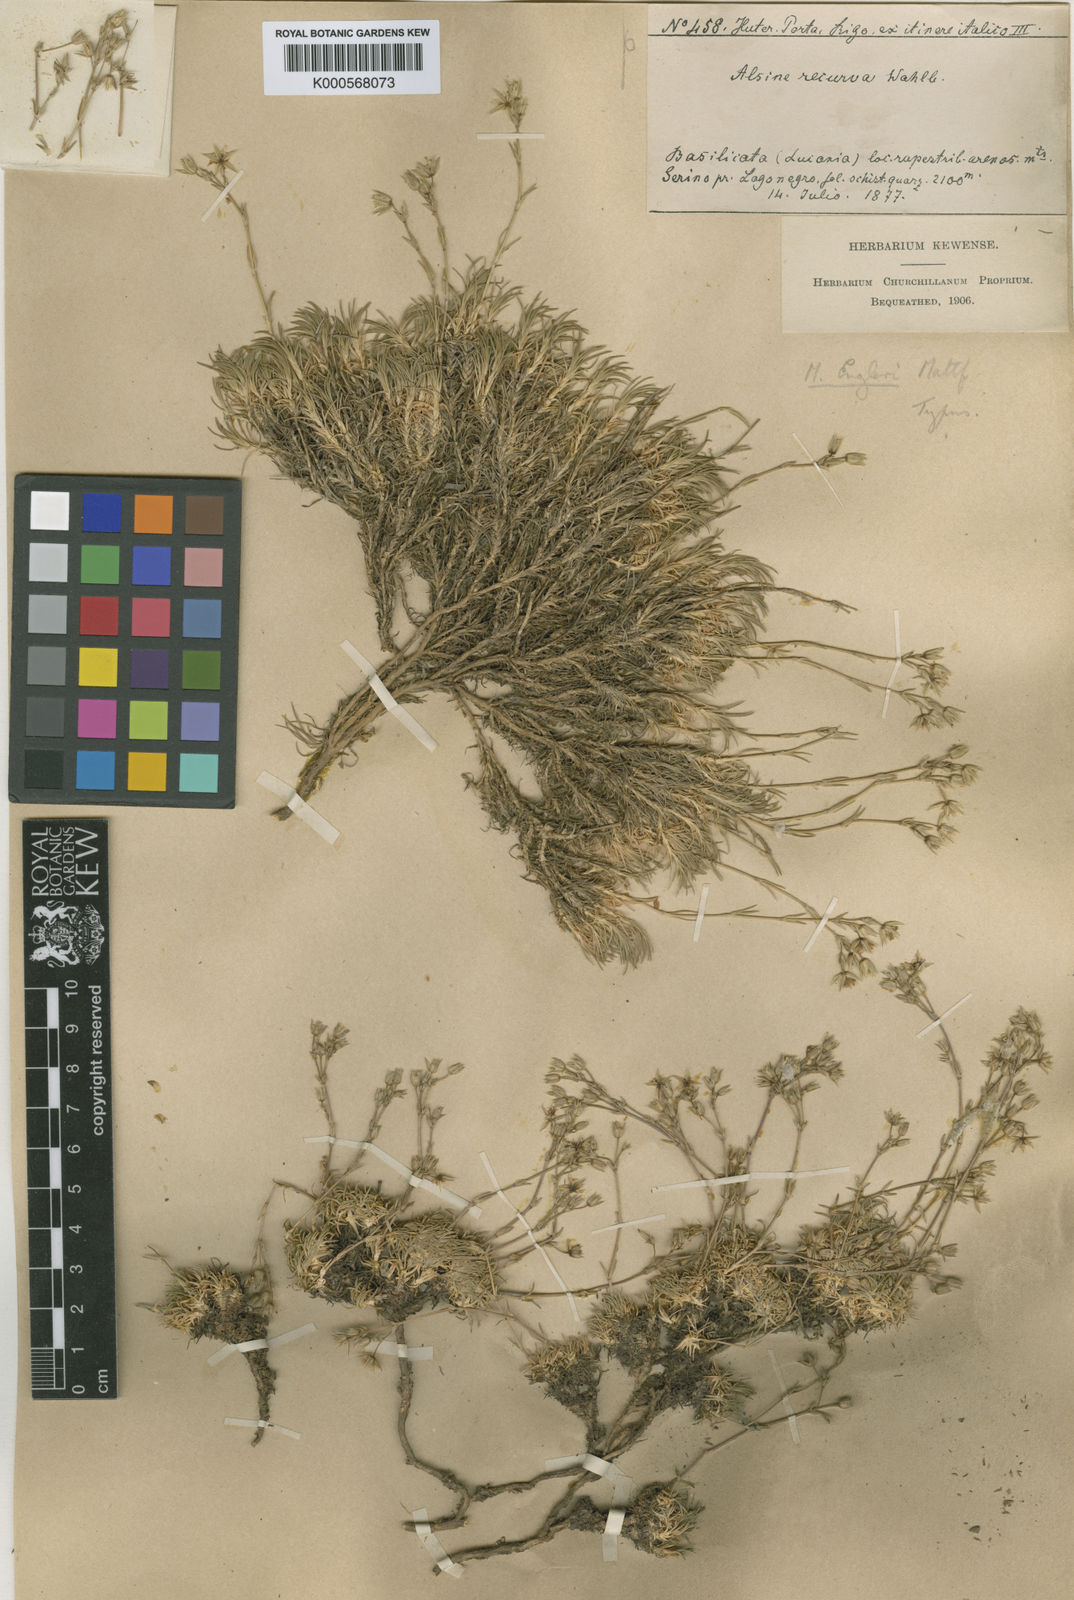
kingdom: Plantae
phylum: Tracheophyta
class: Magnoliopsida
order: Caryophyllales
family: Caryophyllaceae
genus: Minuartia
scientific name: Minuartia recurva
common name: Recurved sandwort
